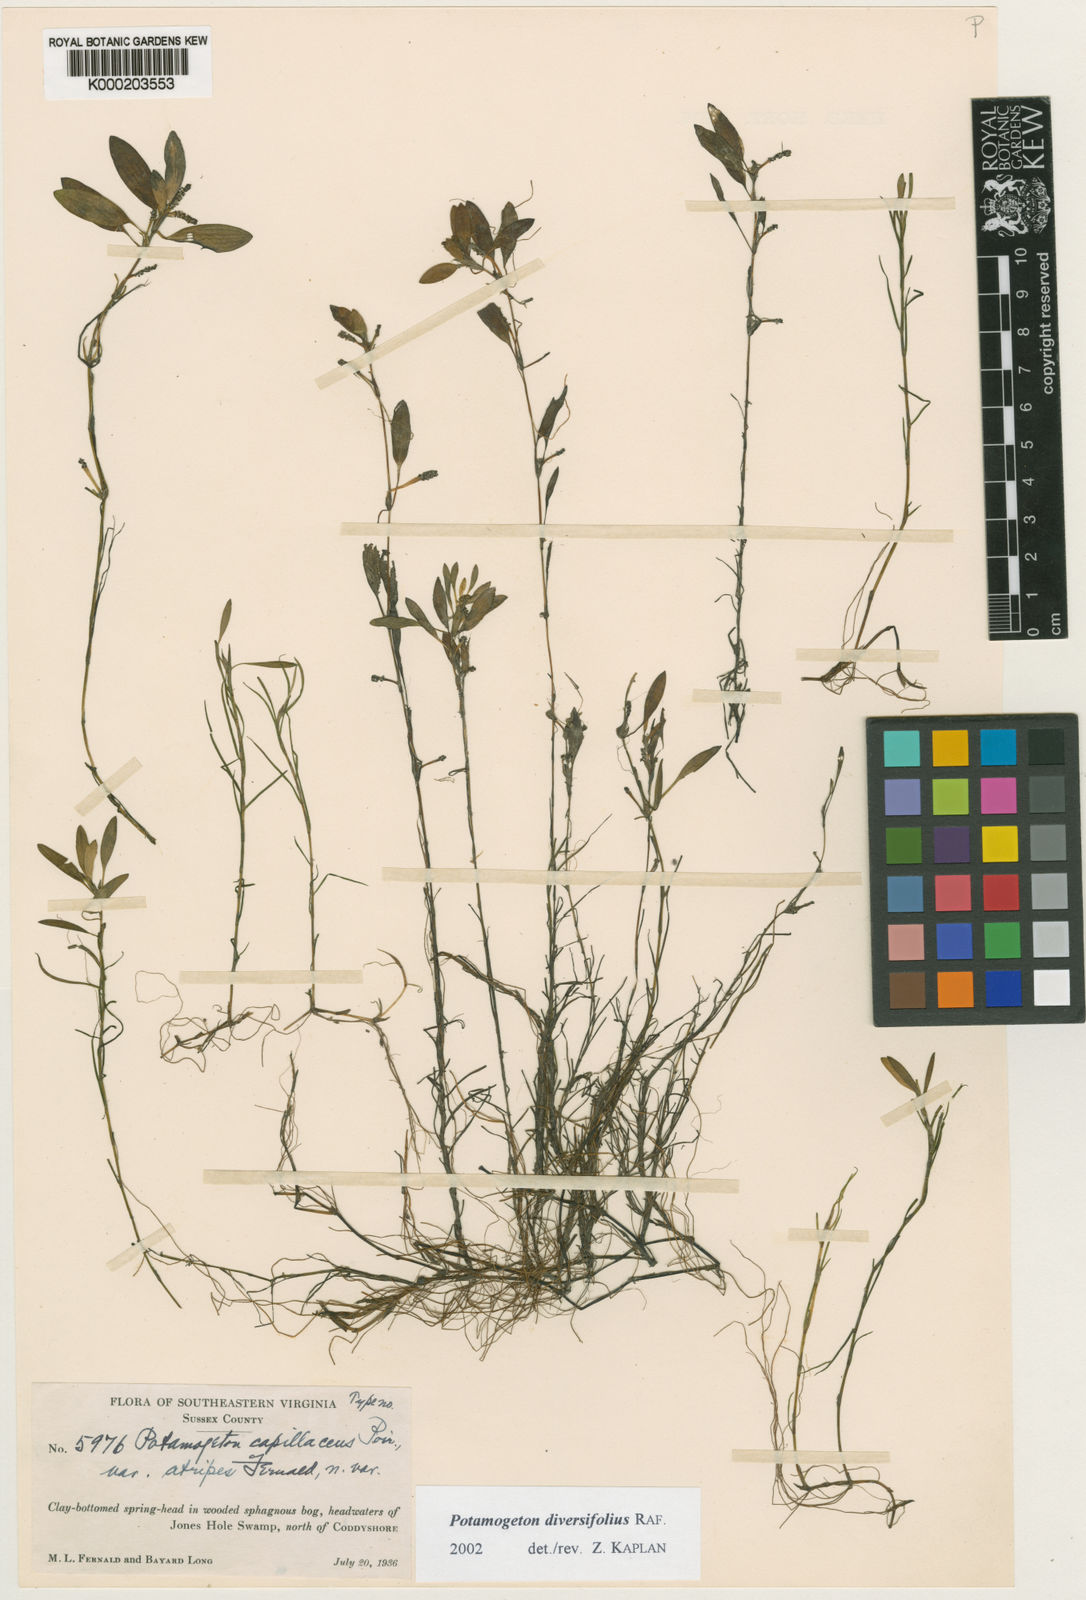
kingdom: Plantae
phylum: Tracheophyta
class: Liliopsida
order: Alismatales
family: Potamogetonaceae
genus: Potamogeton
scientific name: Potamogeton diversifolius
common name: Water-thread pondweed
